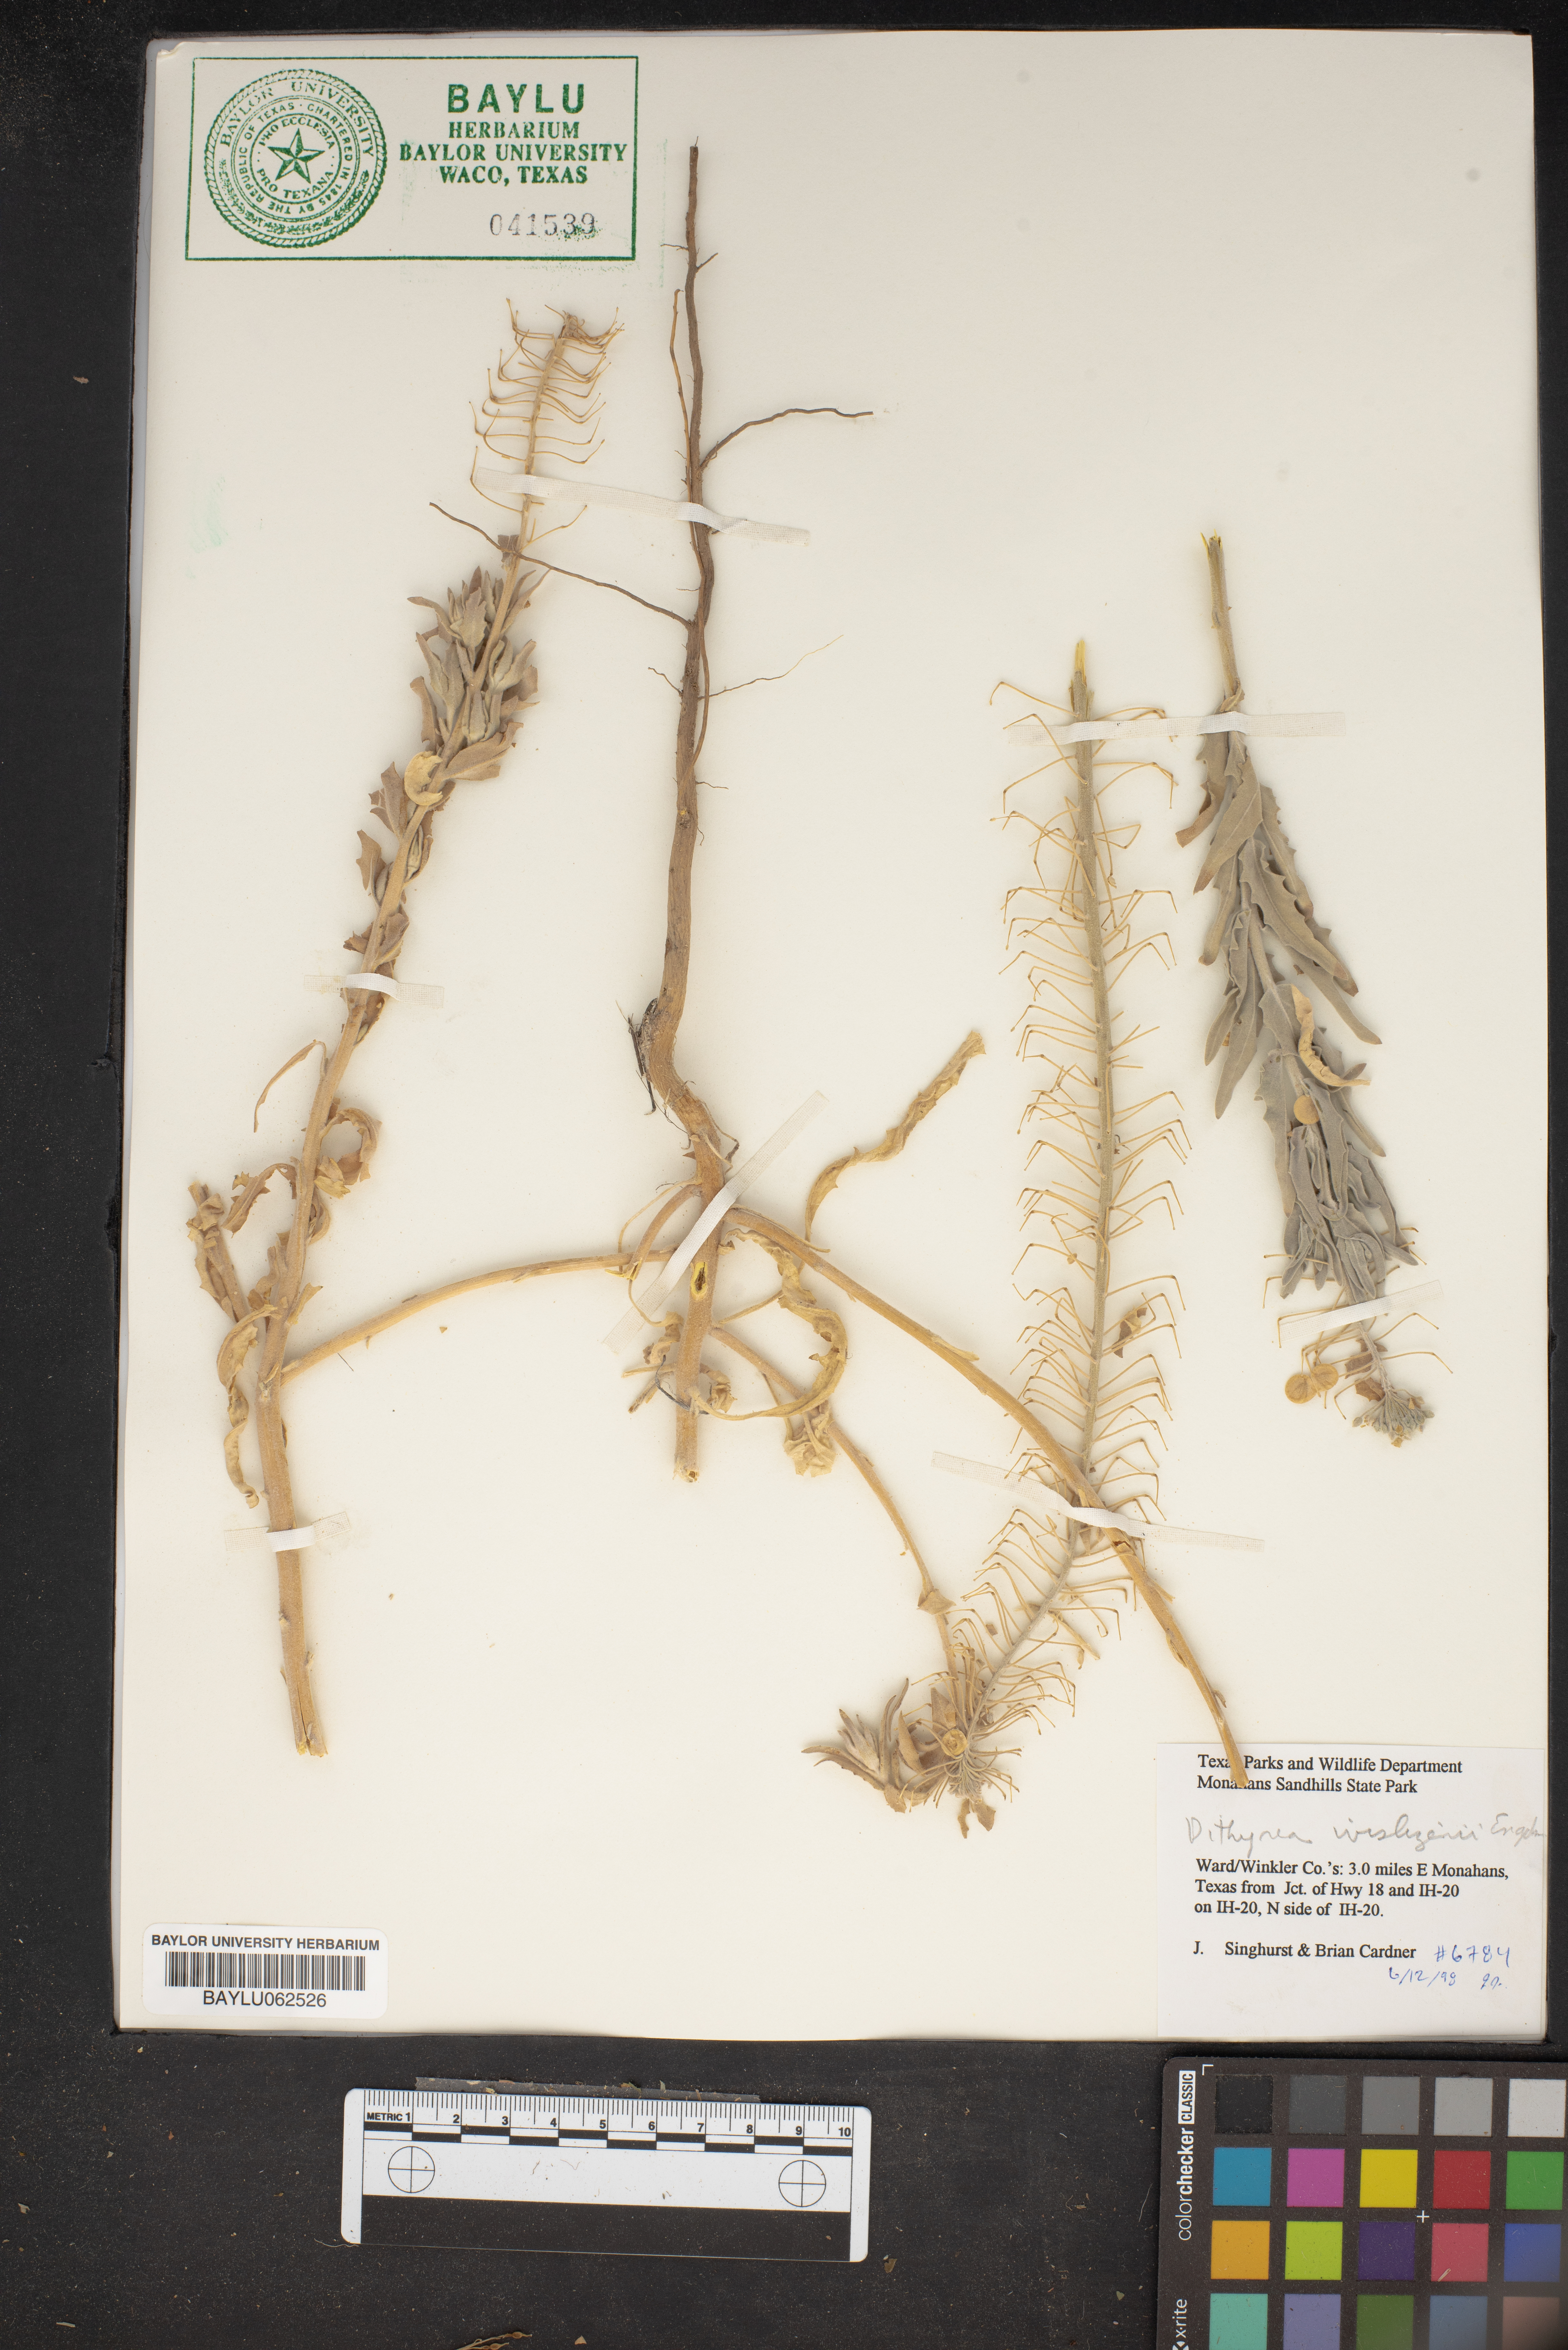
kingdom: Plantae
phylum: Tracheophyta
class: Magnoliopsida
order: Brassicales
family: Brassicaceae
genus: Dimorphocarpa
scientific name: Dimorphocarpa wislizenii
